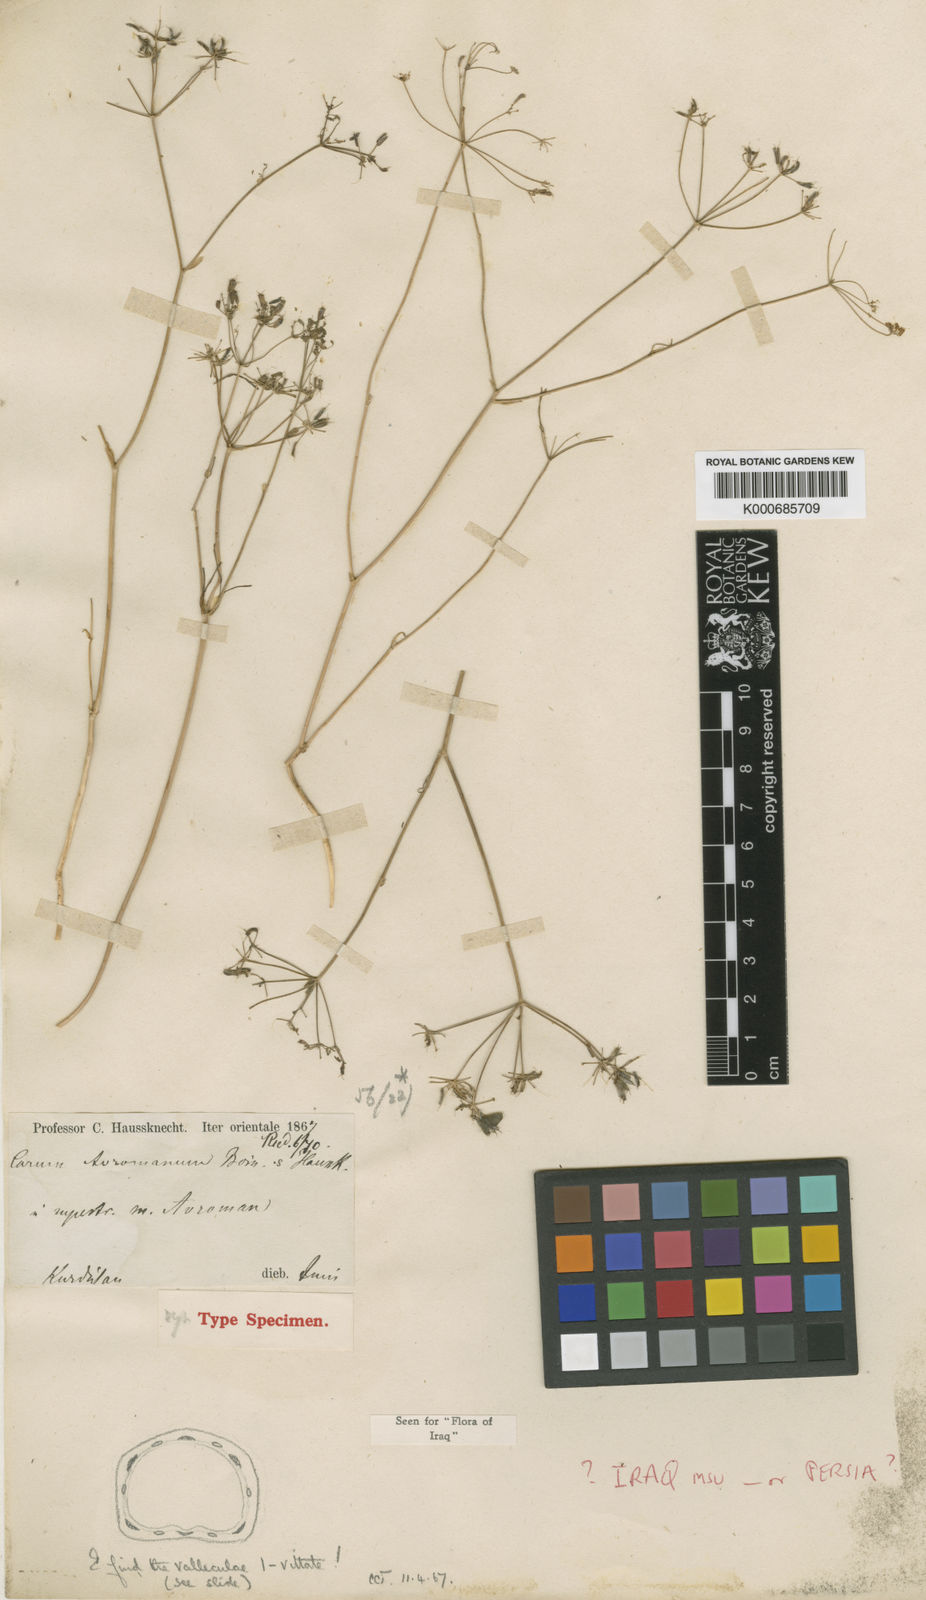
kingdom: Plantae
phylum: Tracheophyta
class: Magnoliopsida
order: Apiales
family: Apiaceae
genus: Bunium
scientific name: Bunium avromanum
